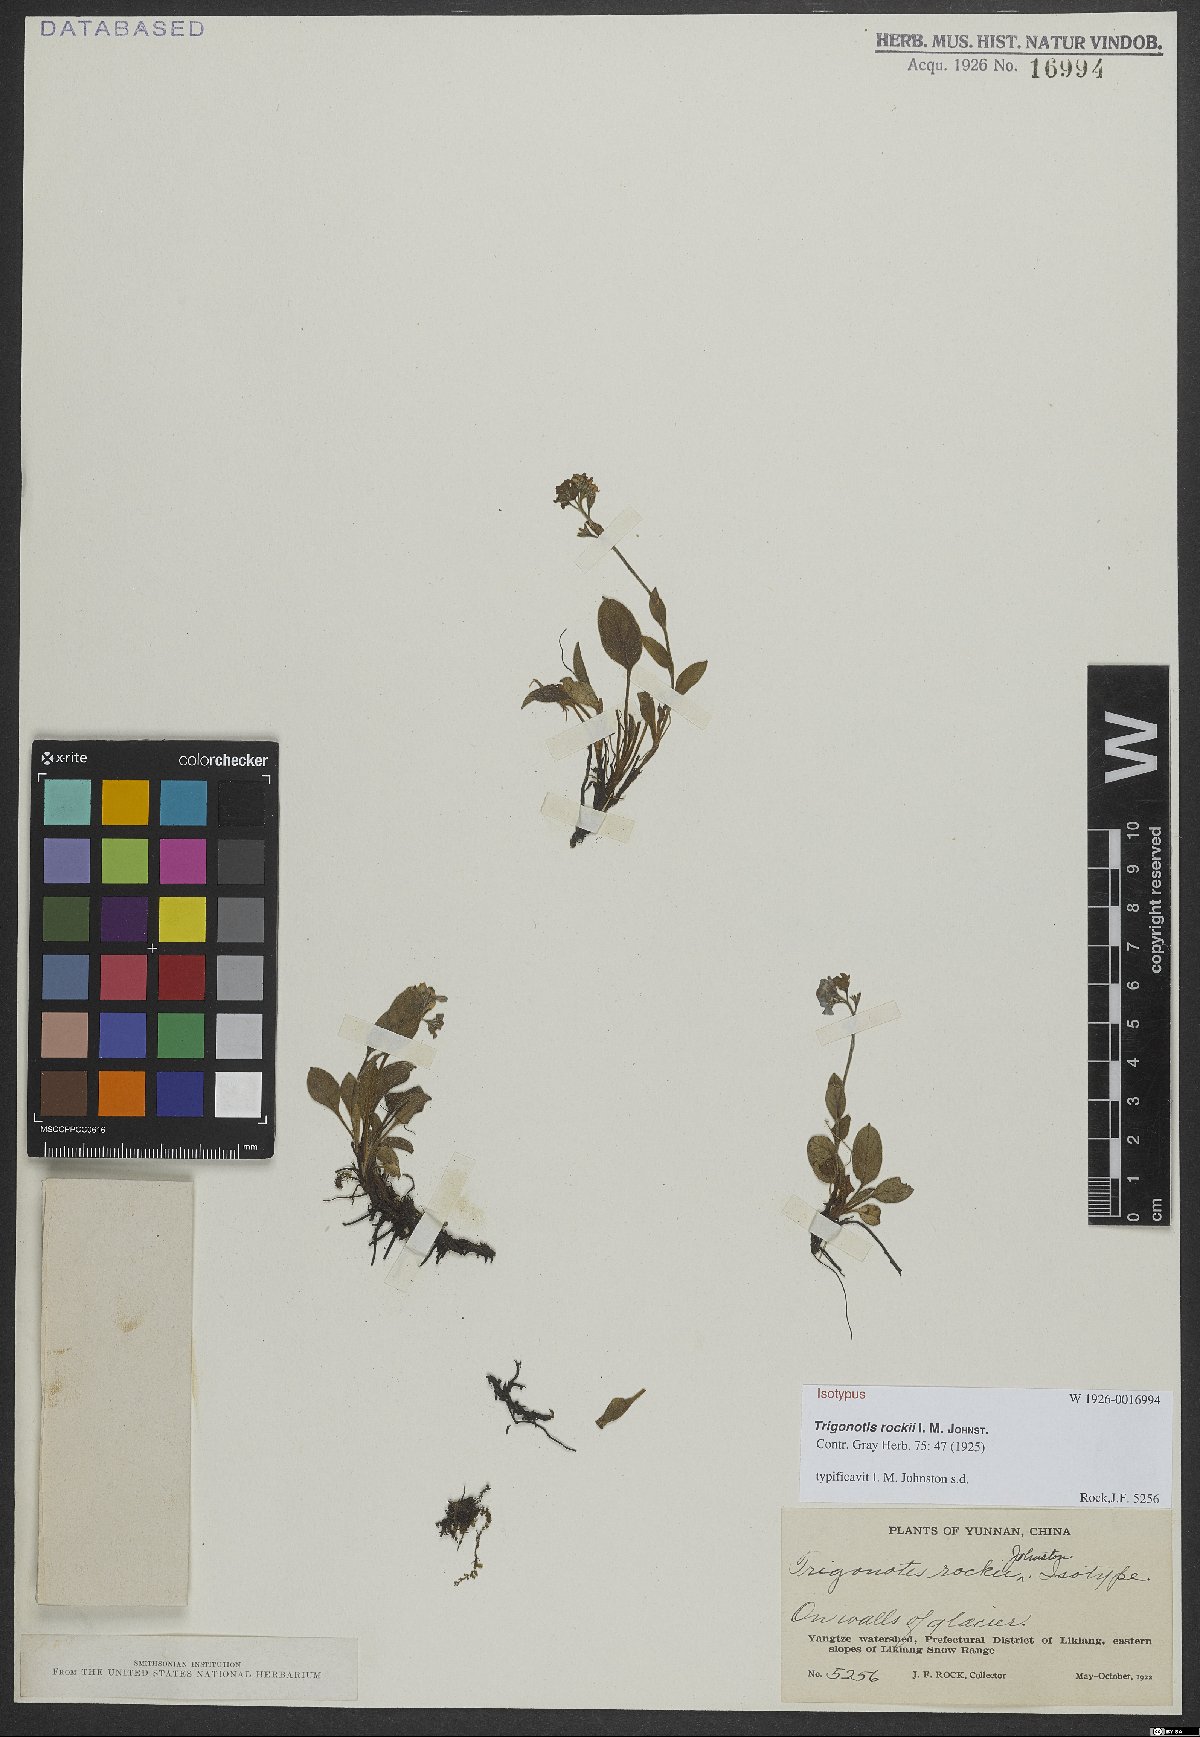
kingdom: Plantae
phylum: Tracheophyta
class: Magnoliopsida
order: Boraginales
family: Boraginaceae
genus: Trigonotis
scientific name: Trigonotis rockii
